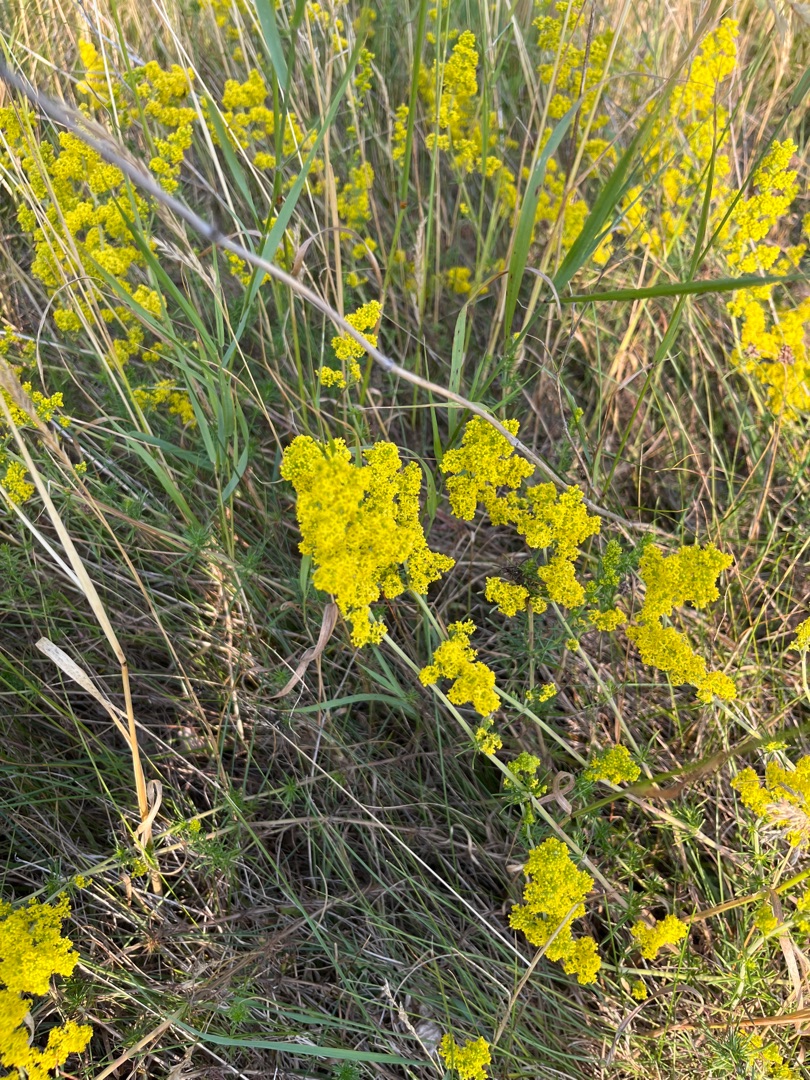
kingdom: Plantae
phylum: Tracheophyta
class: Magnoliopsida
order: Gentianales
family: Rubiaceae
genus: Galium
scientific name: Galium verum
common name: Gul snerre
